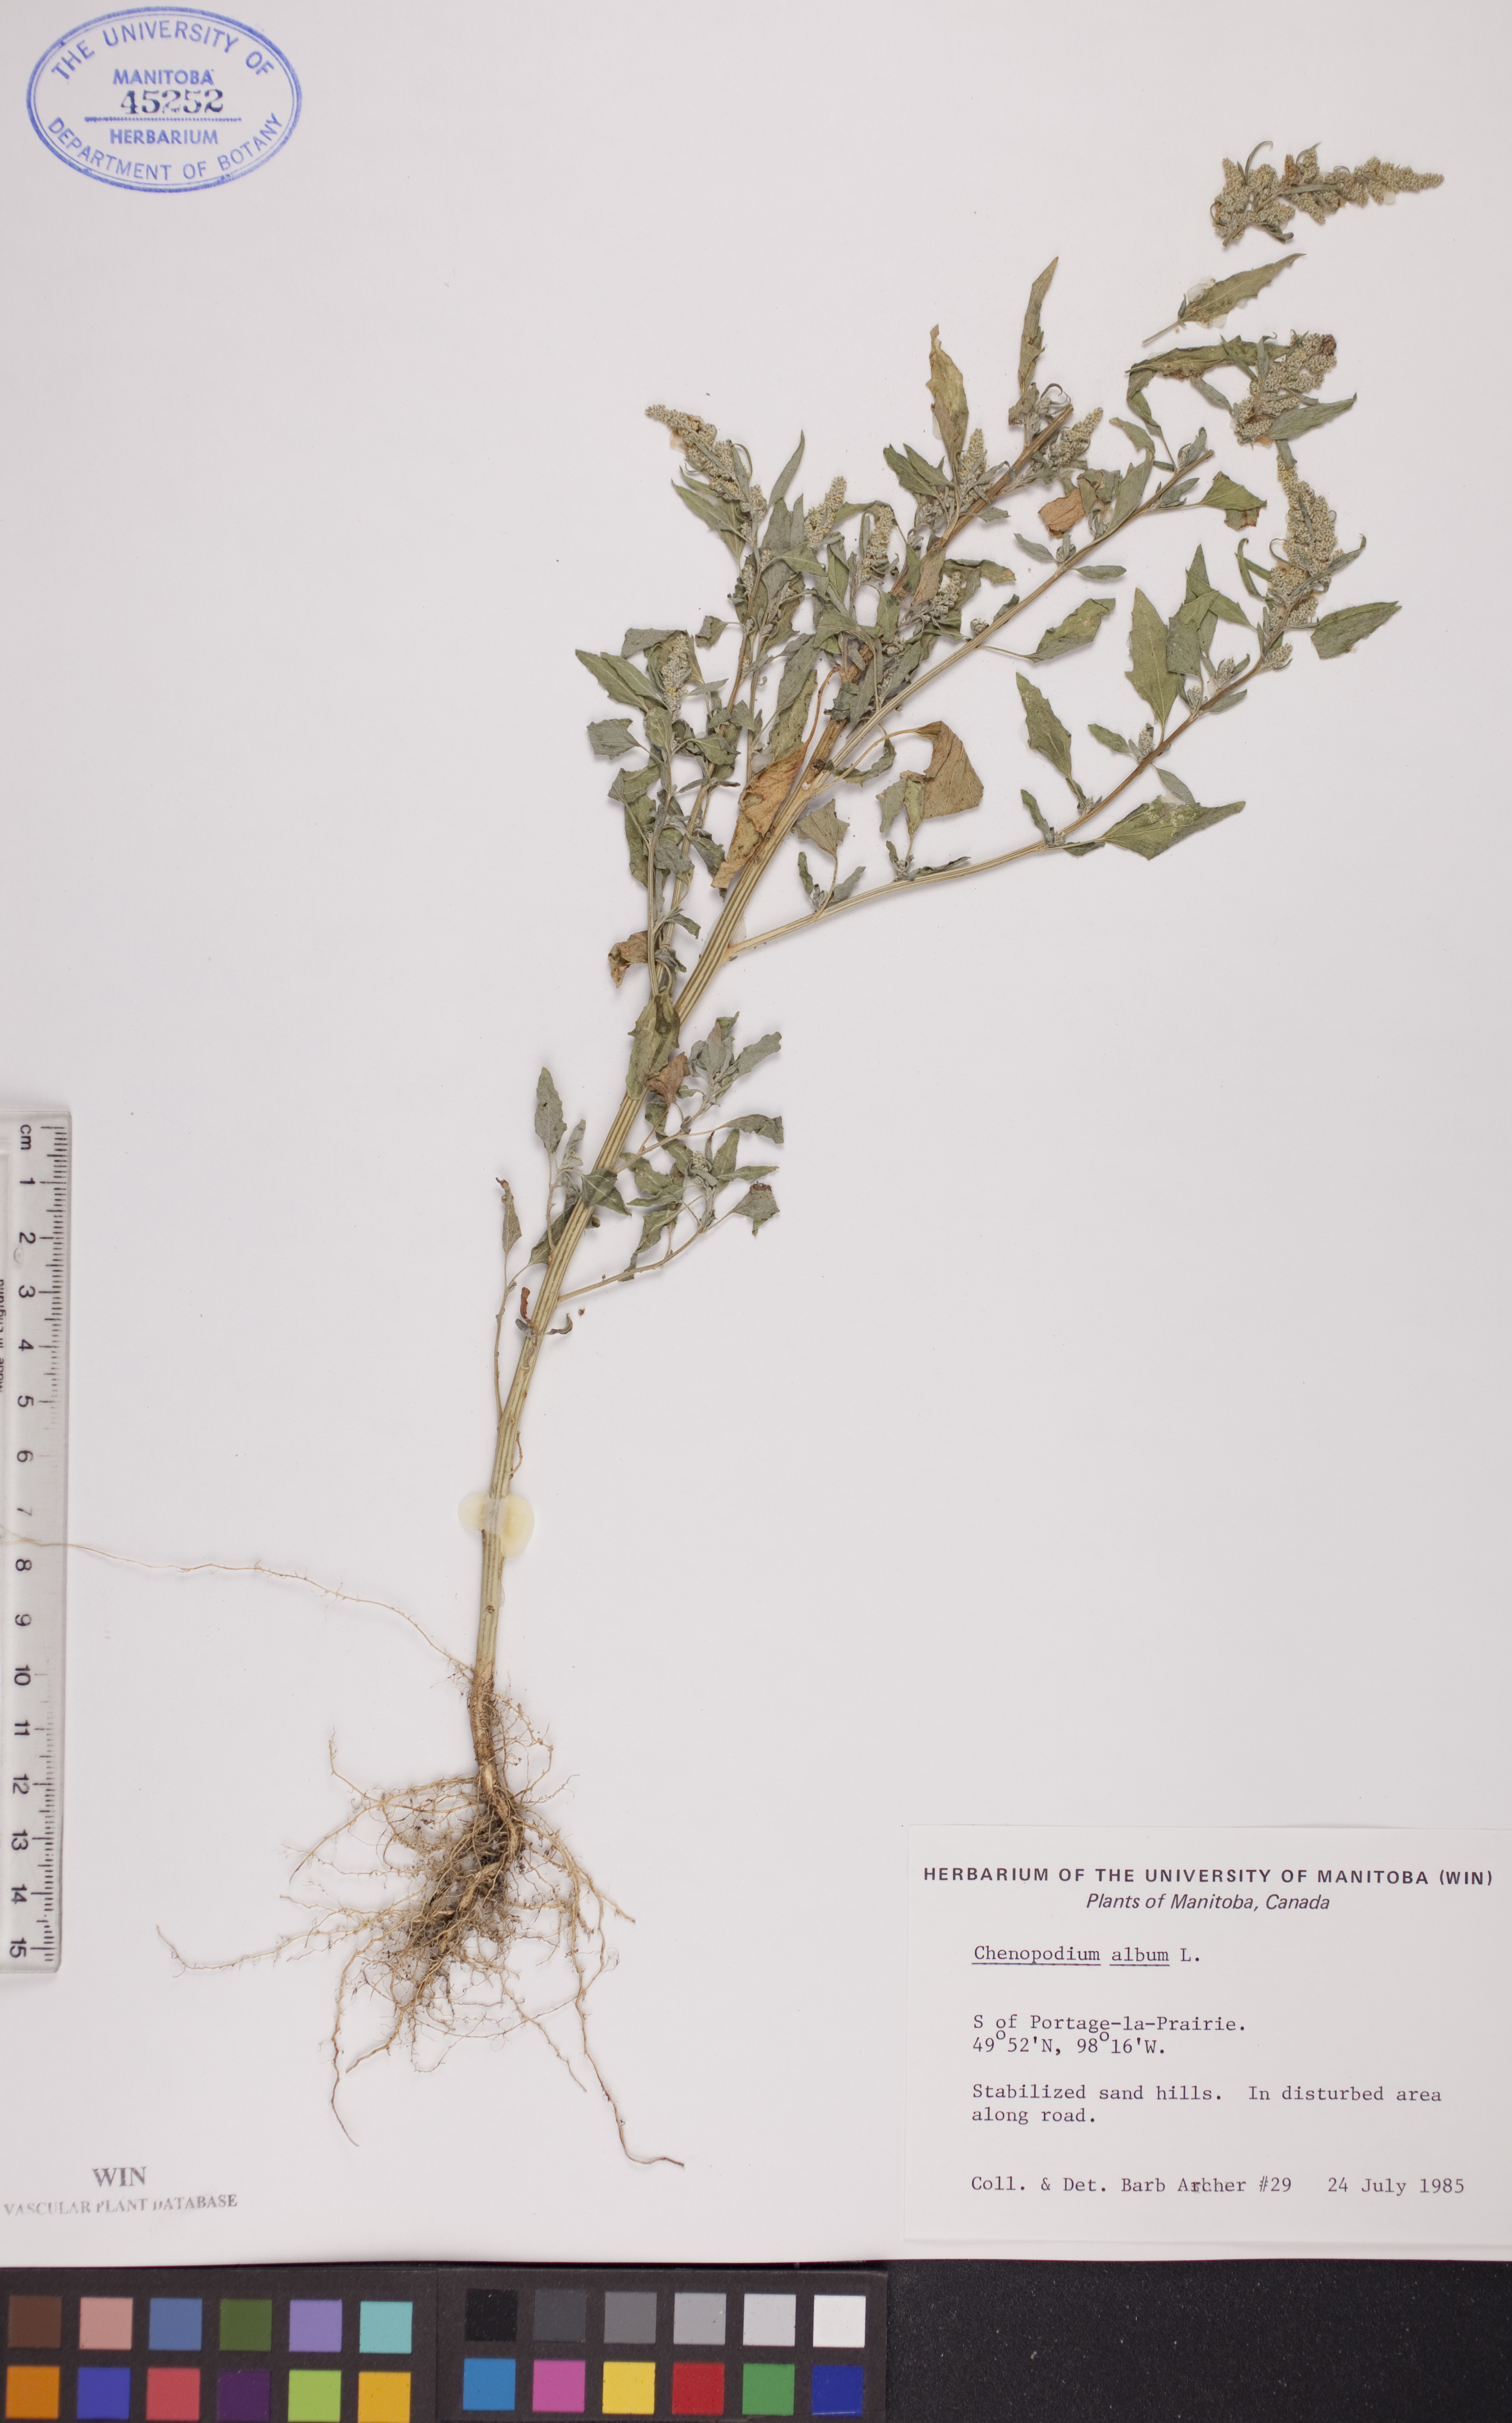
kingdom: Plantae
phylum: Tracheophyta
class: Magnoliopsida
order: Caryophyllales
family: Amaranthaceae
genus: Chenopodium
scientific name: Chenopodium album
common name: Fat-hen
